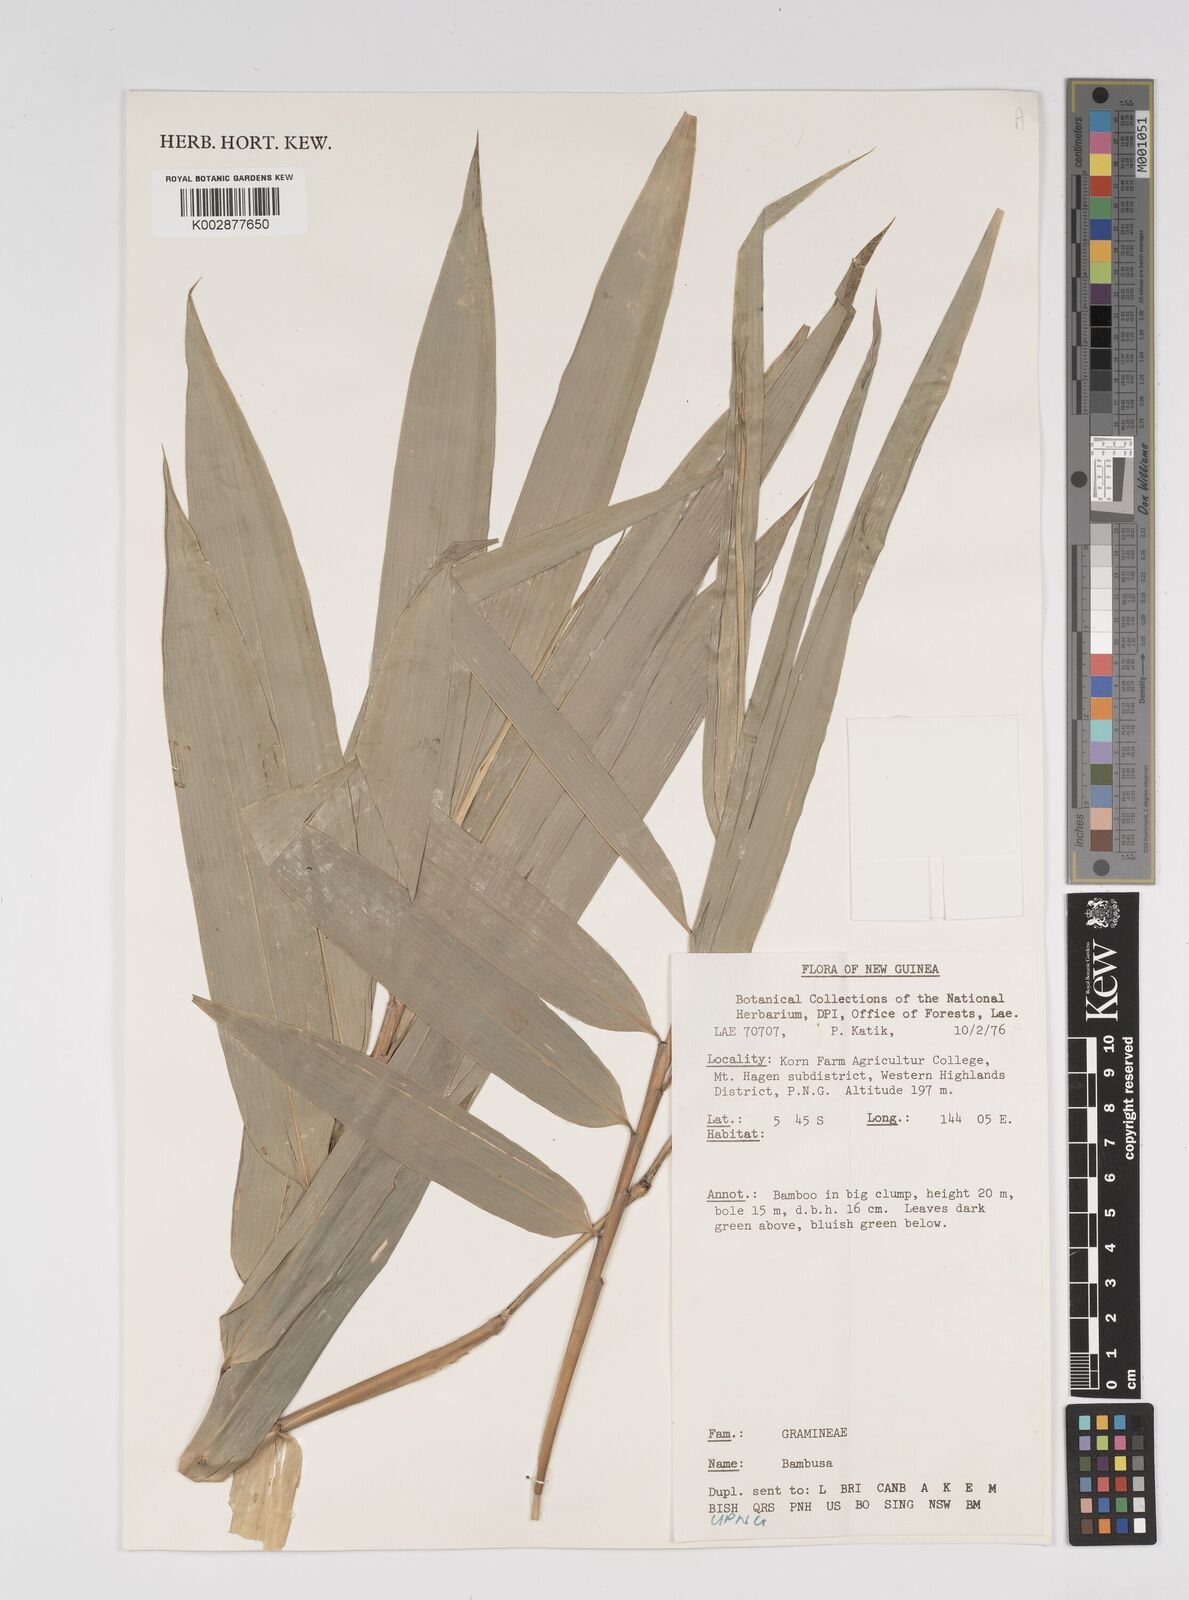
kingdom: Plantae
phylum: Tracheophyta
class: Liliopsida
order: Poales
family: Poaceae
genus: Bambusa
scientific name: Bambusa
